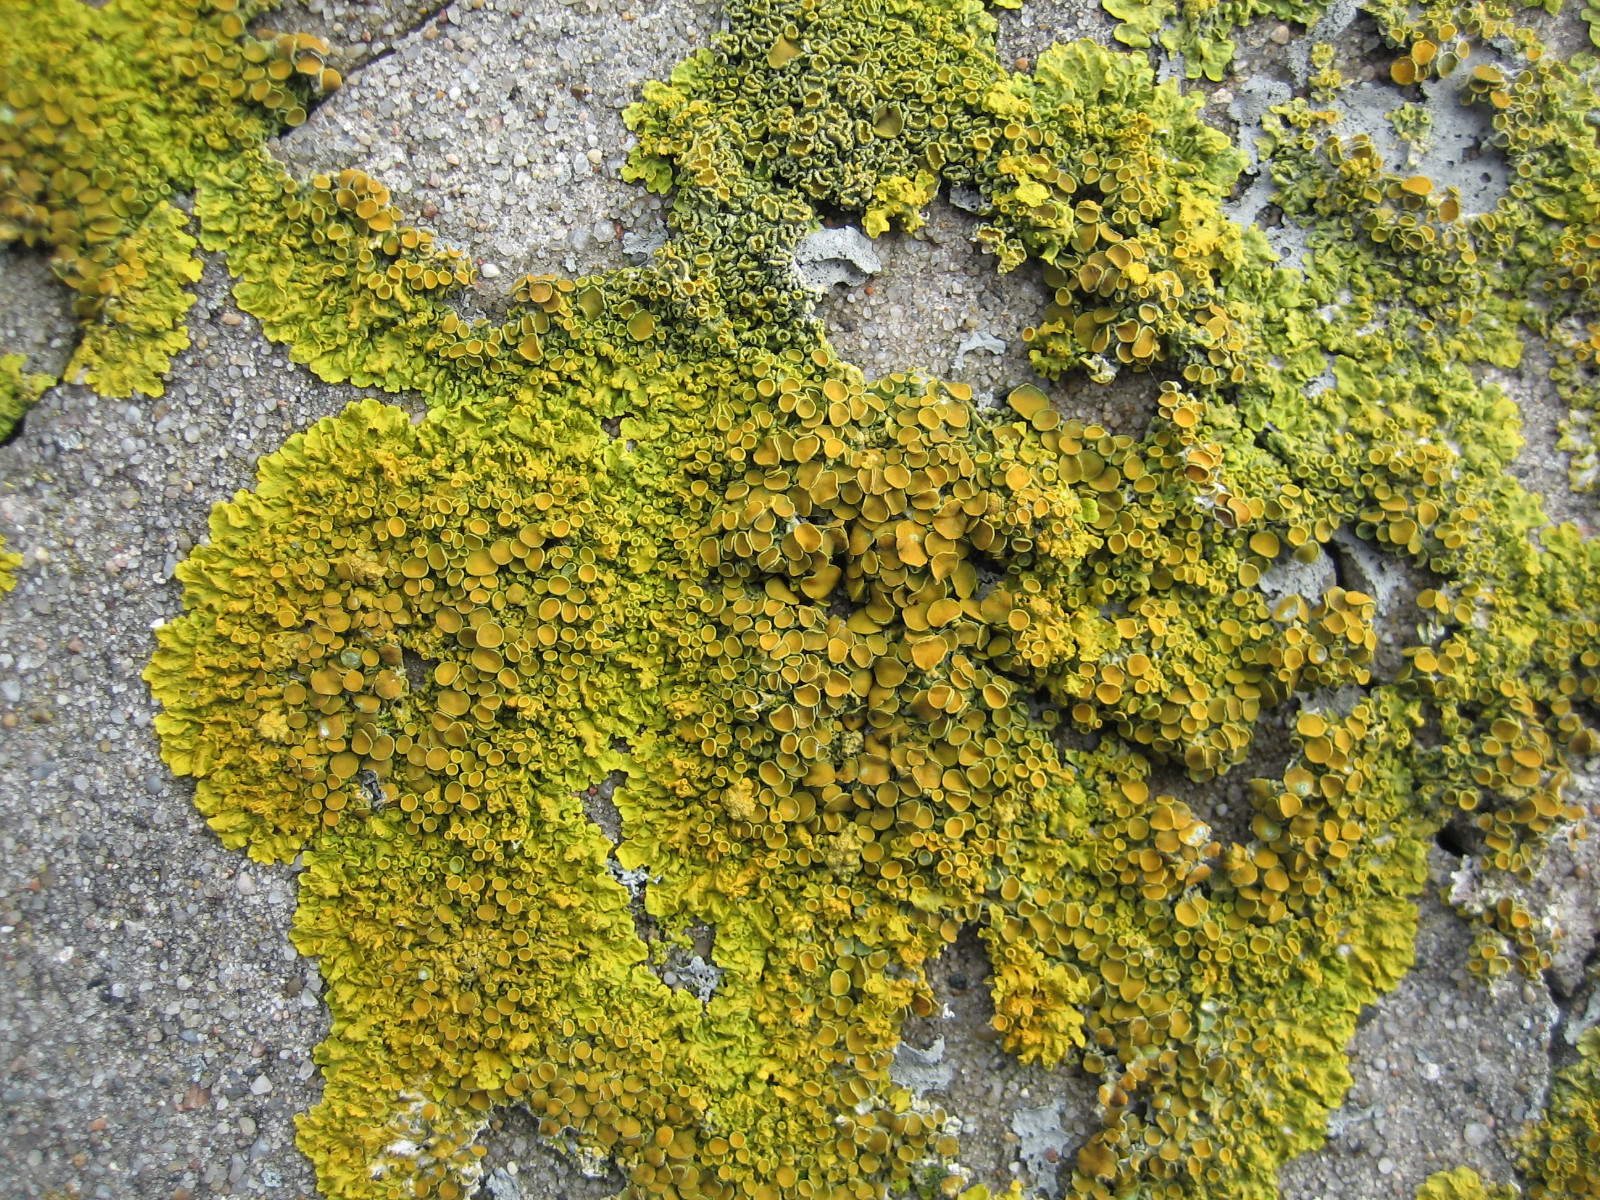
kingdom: Fungi
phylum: Ascomycota
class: Lecanoromycetes
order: Teloschistales
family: Teloschistaceae
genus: Xanthoria
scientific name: Xanthoria parietina
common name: almindelig væggelav
